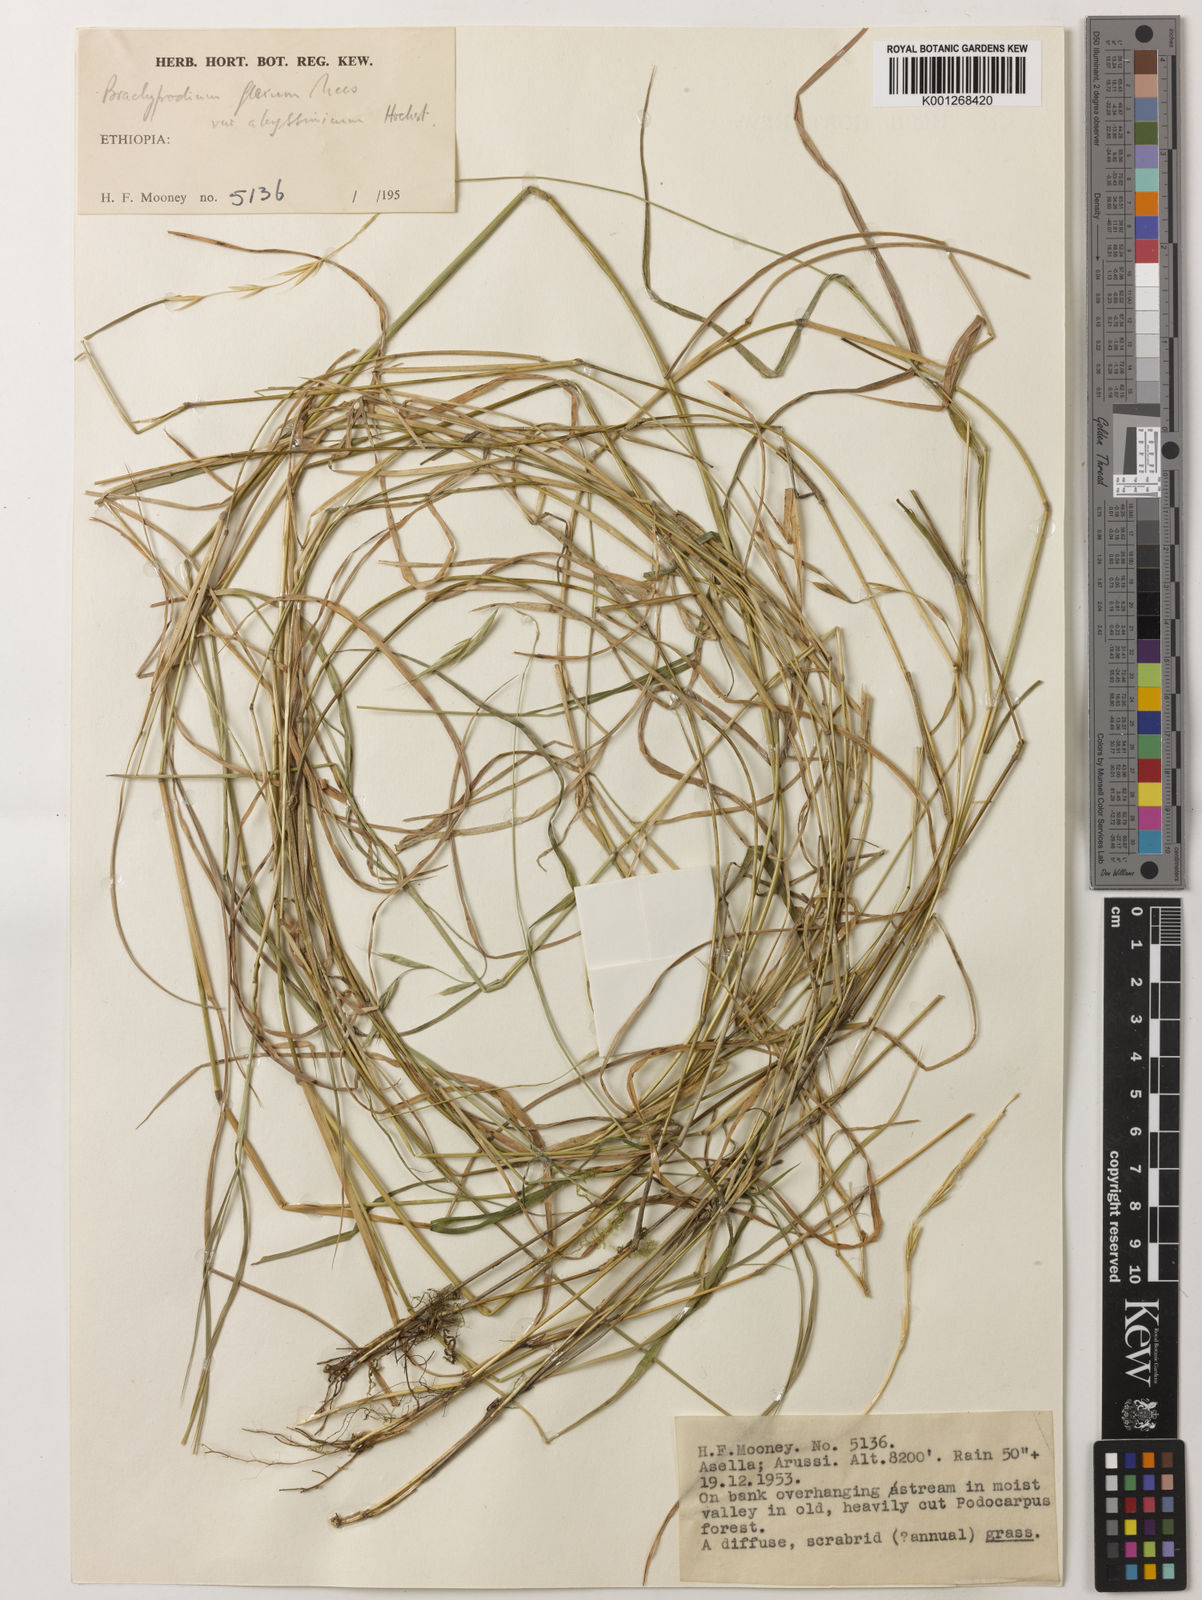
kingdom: Plantae
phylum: Tracheophyta
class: Liliopsida
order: Poales
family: Poaceae
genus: Brachypodium
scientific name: Brachypodium flexum
